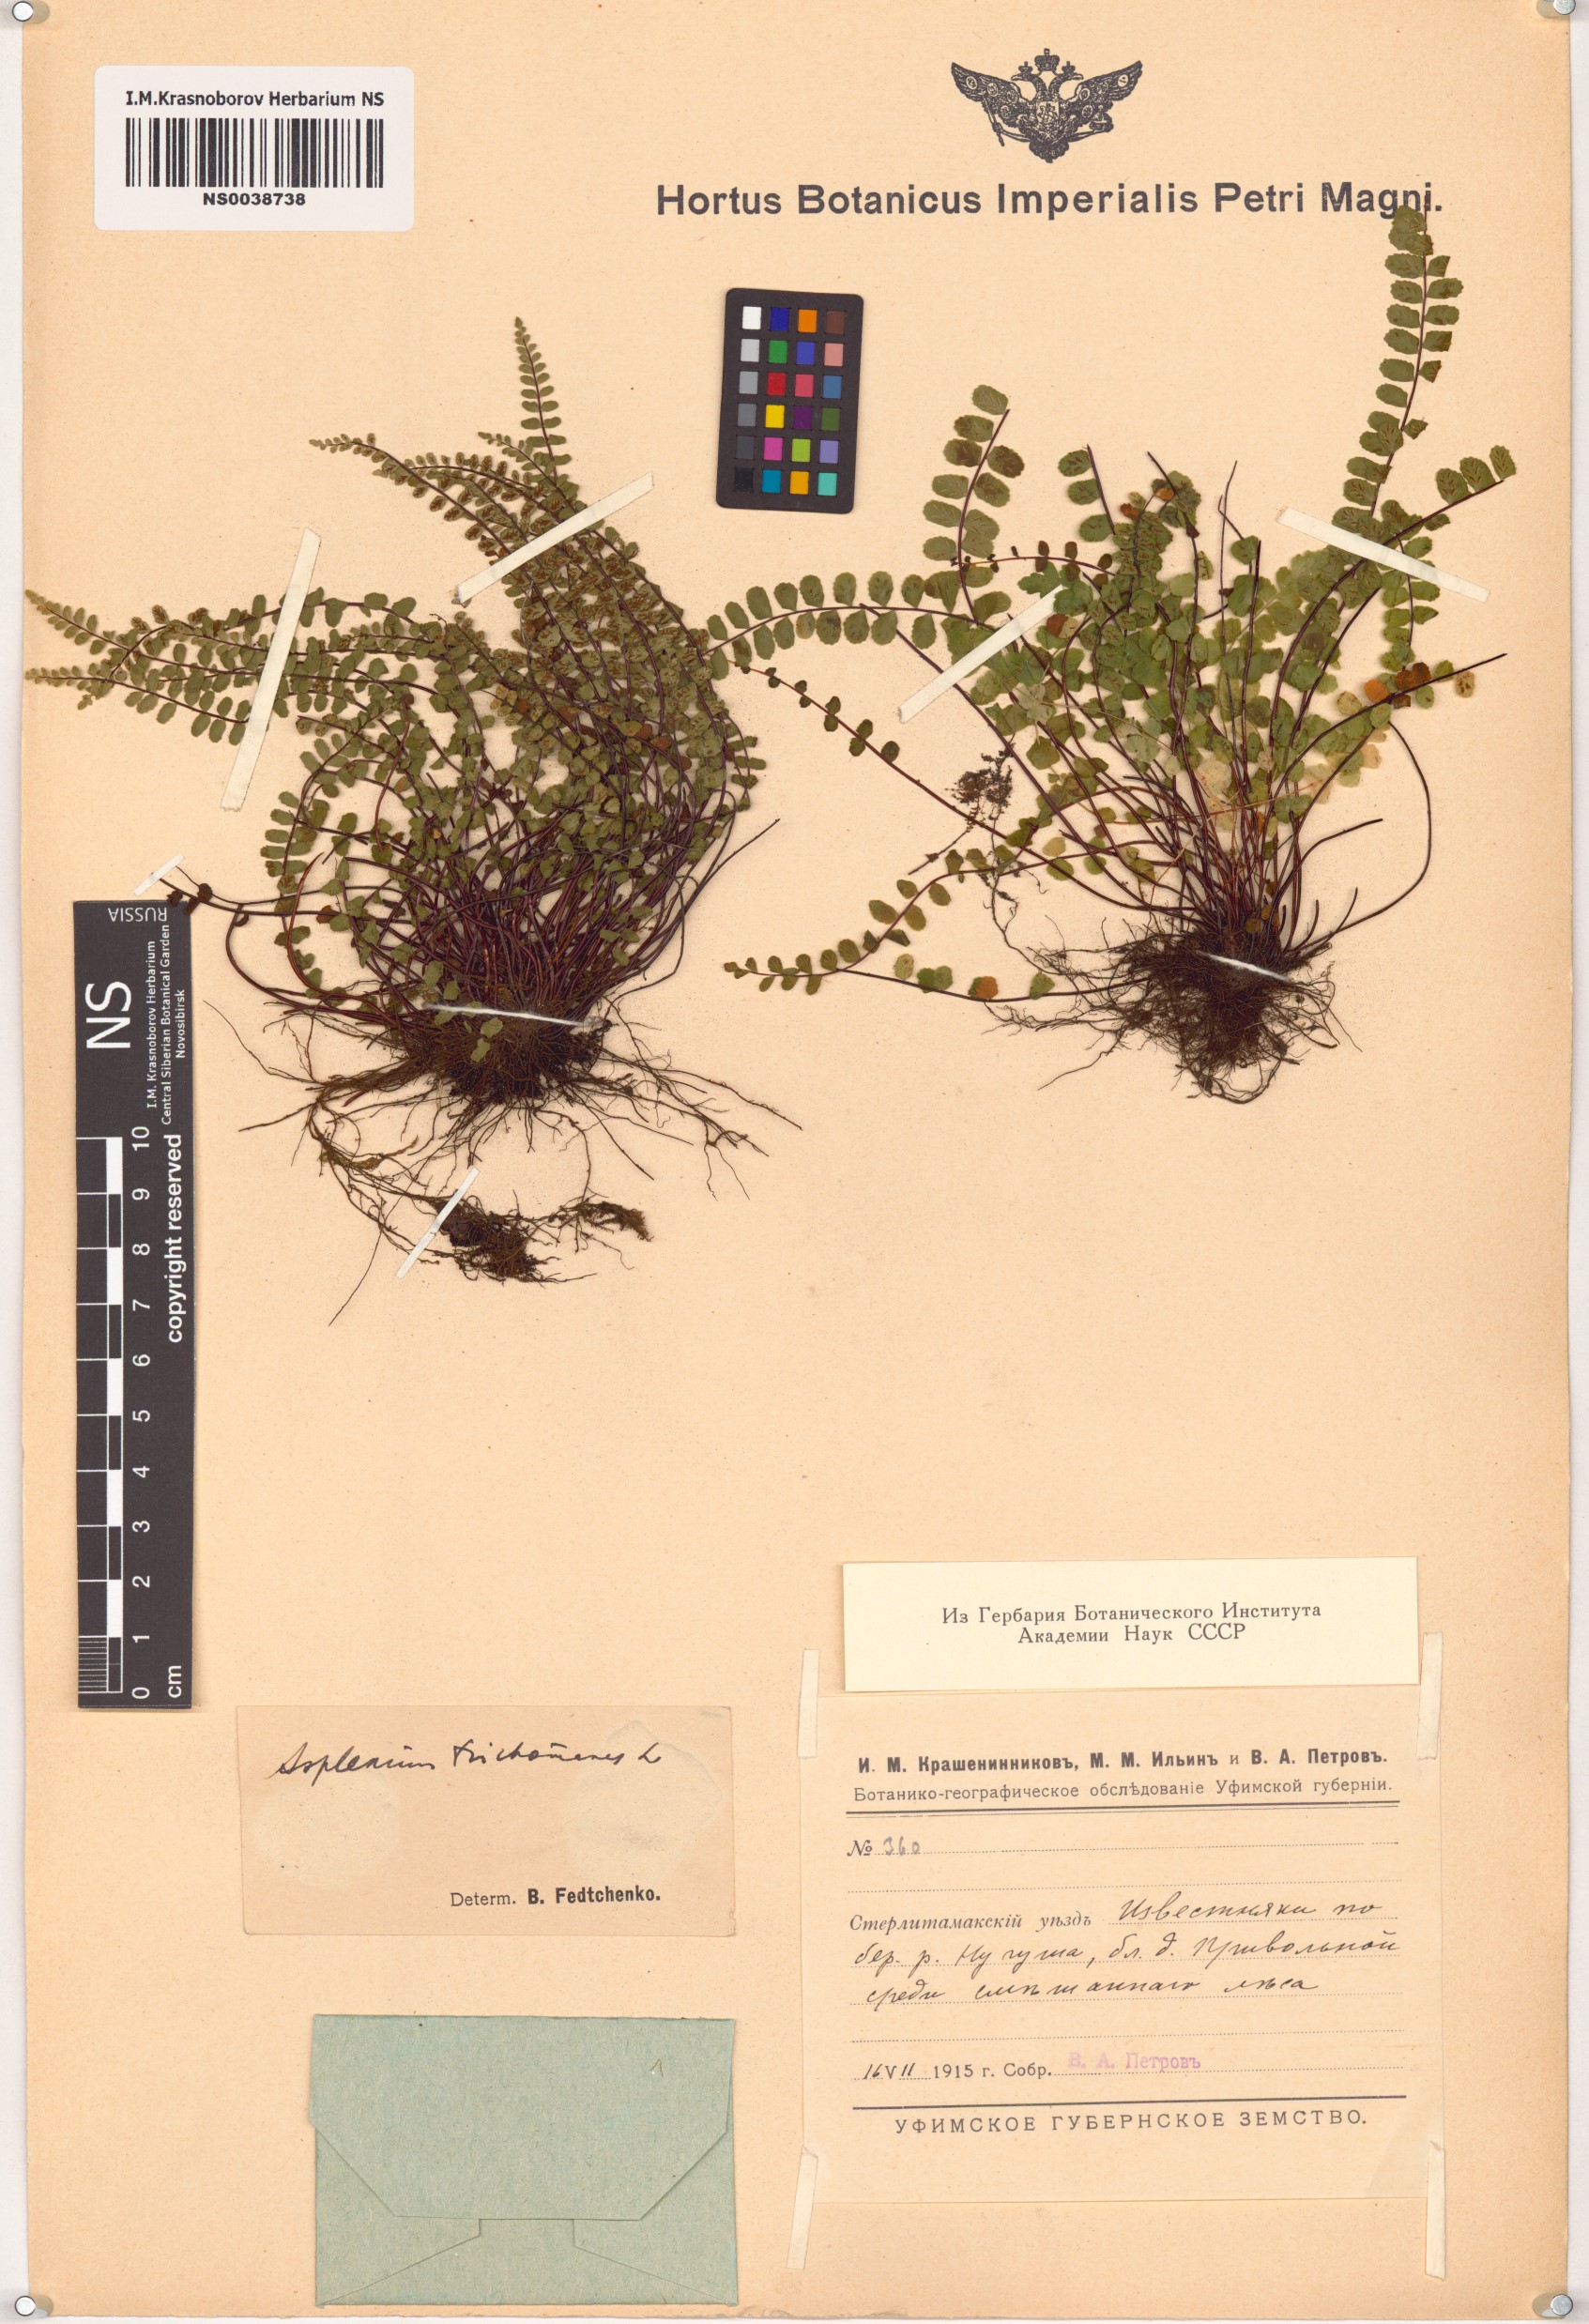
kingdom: Plantae
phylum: Tracheophyta
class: Polypodiopsida
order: Polypodiales
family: Aspleniaceae
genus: Asplenium
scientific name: Asplenium trichomanes
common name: Maidenhair spleenwort
